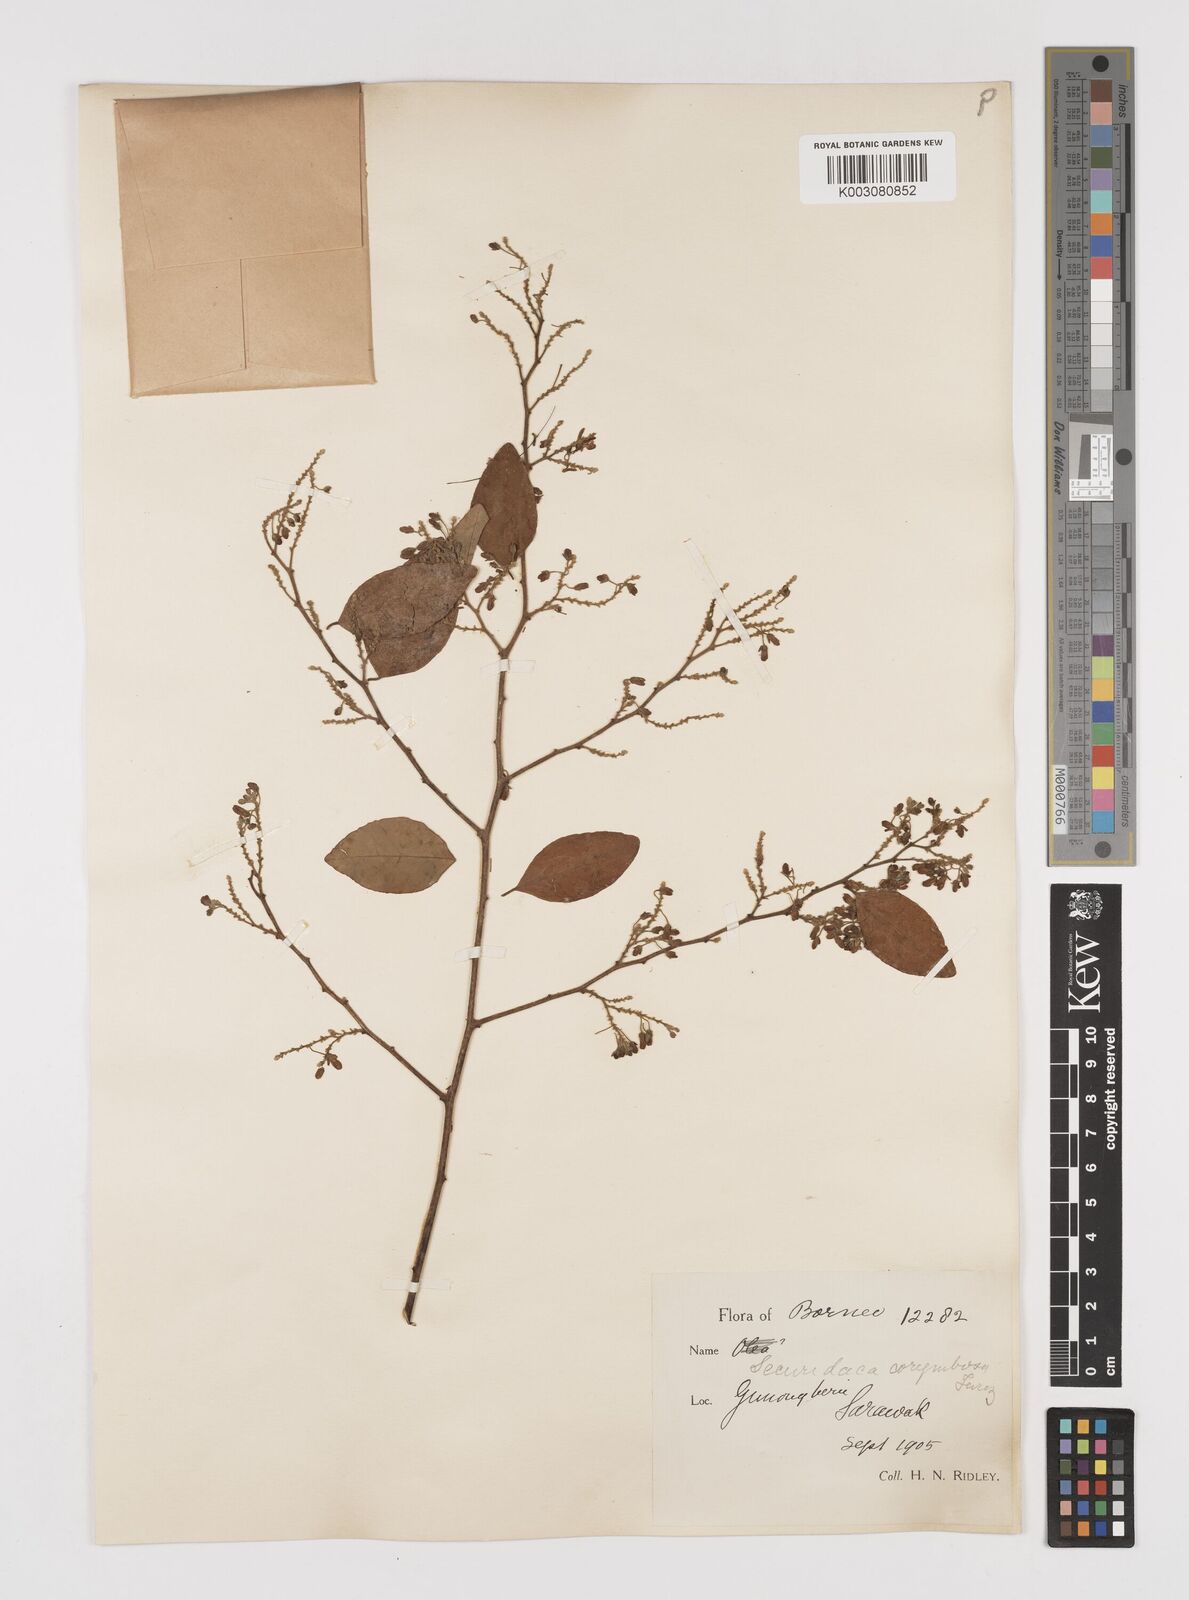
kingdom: Plantae
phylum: Tracheophyta
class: Magnoliopsida
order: Fabales
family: Polygalaceae
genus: Securidaca
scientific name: Securidaca inappendiculata
